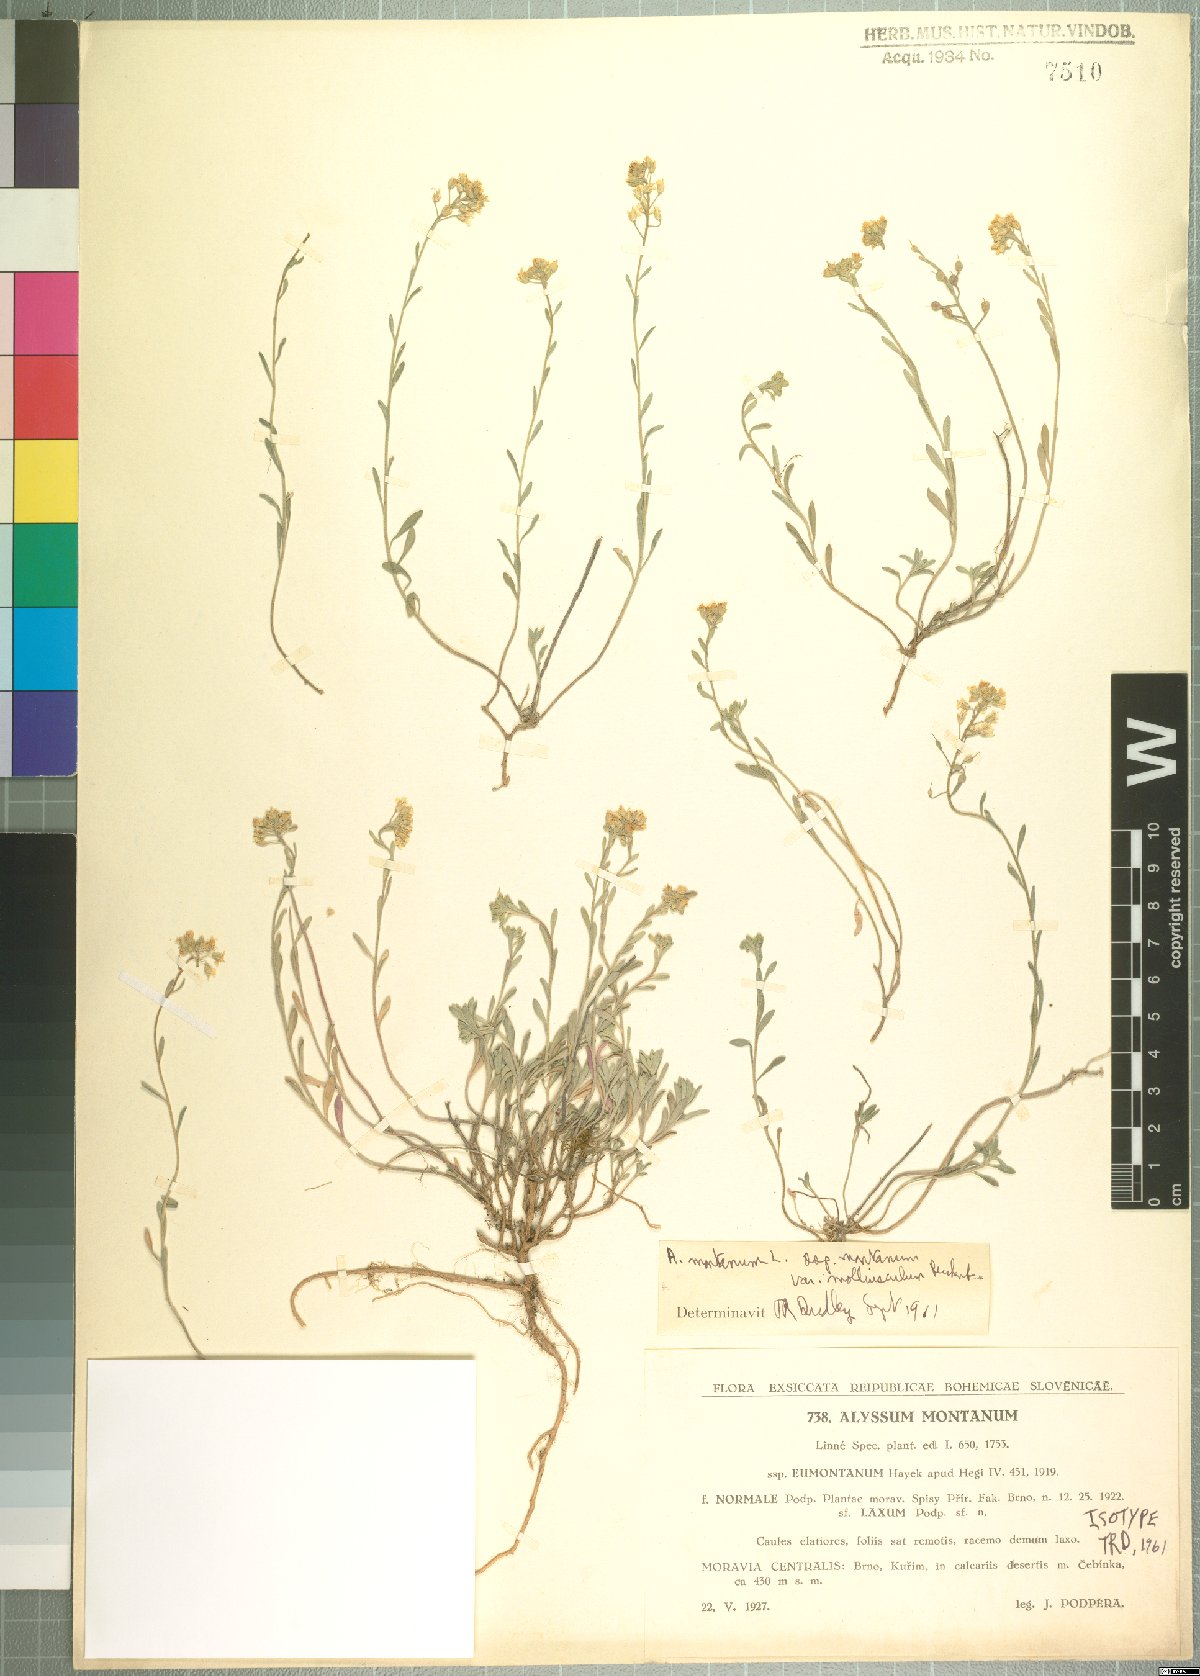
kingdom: Plantae
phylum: Tracheophyta
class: Magnoliopsida
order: Brassicales
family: Brassicaceae
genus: Alyssum
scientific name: Alyssum austrodalmaticum
